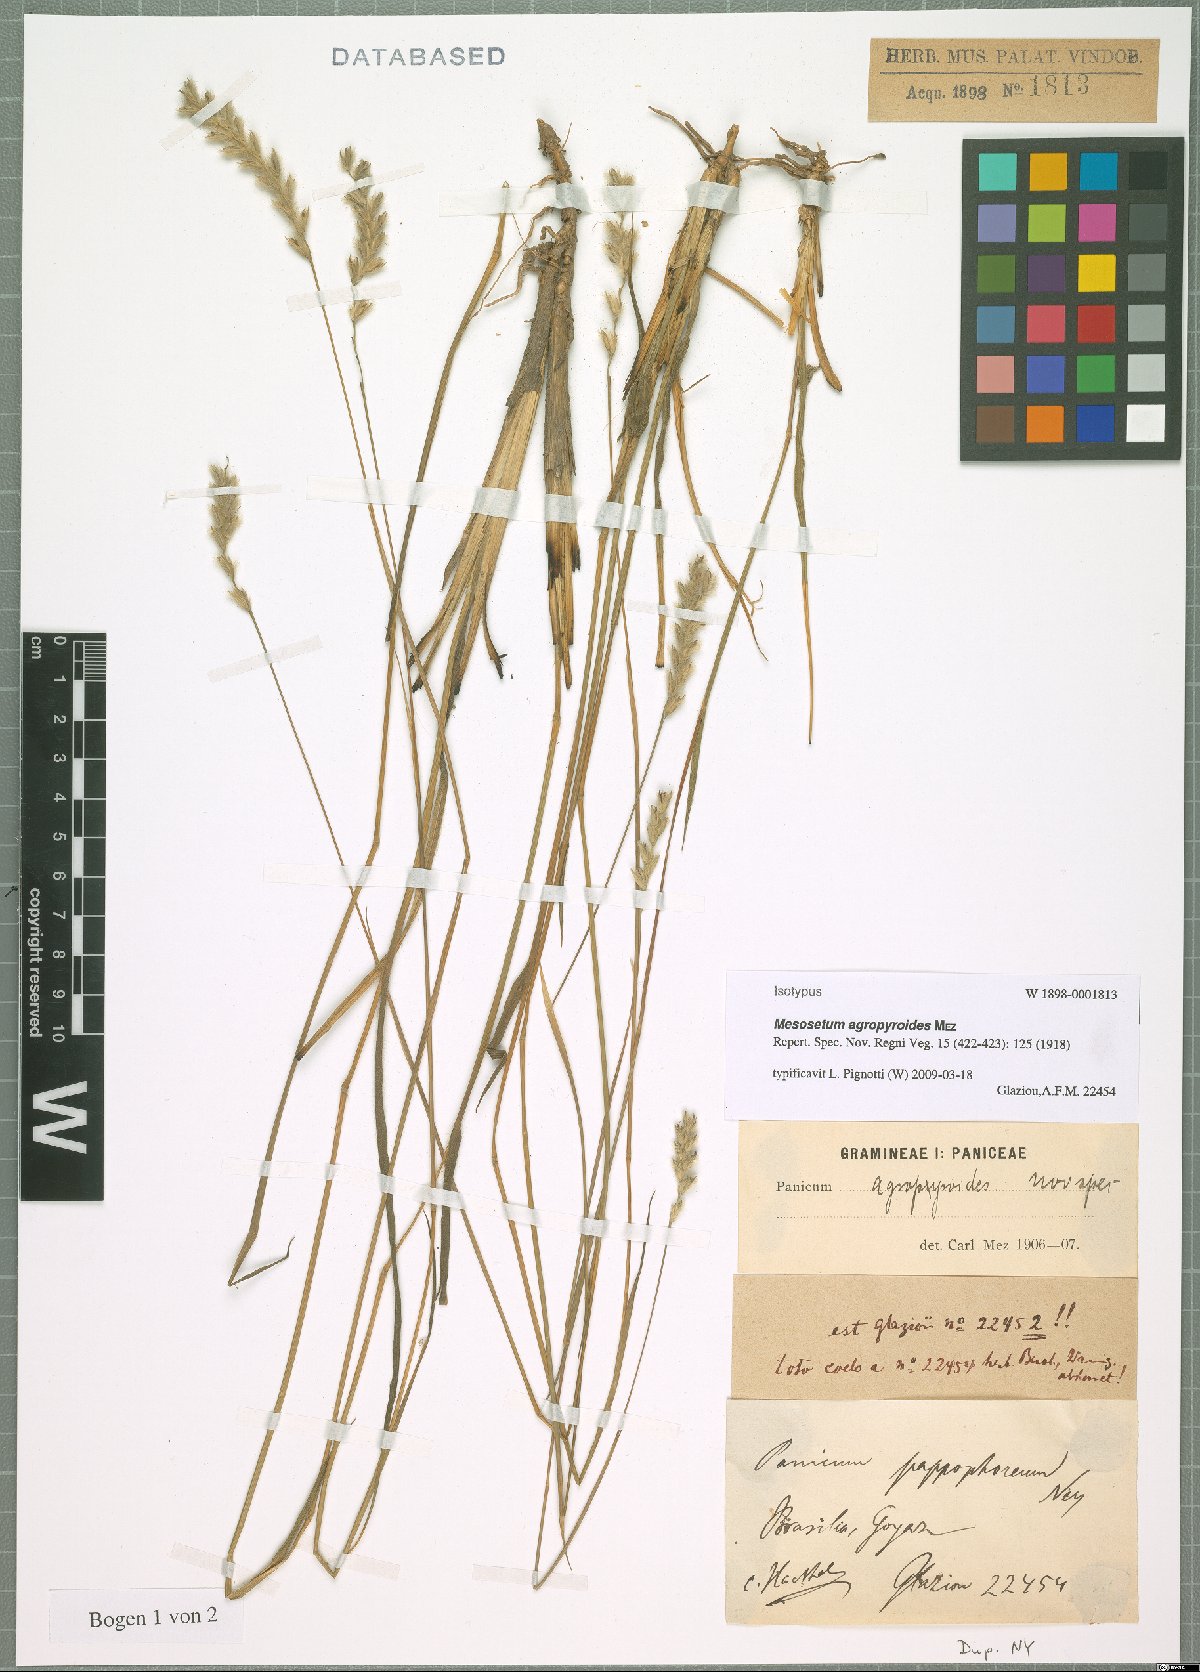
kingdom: Plantae
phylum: Tracheophyta
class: Liliopsida
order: Poales
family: Poaceae
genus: Mesosetum
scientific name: Mesosetum agropyroides
